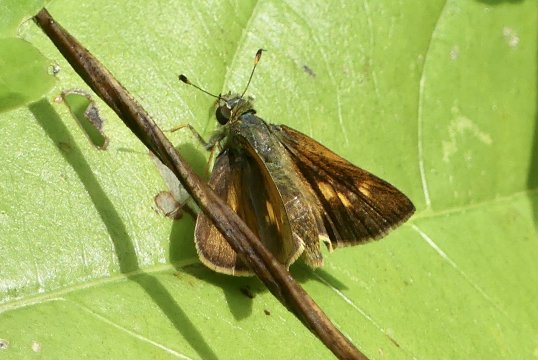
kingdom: Animalia
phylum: Arthropoda
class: Insecta
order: Lepidoptera
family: Hesperiidae
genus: Wallengrenia
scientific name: Wallengrenia
